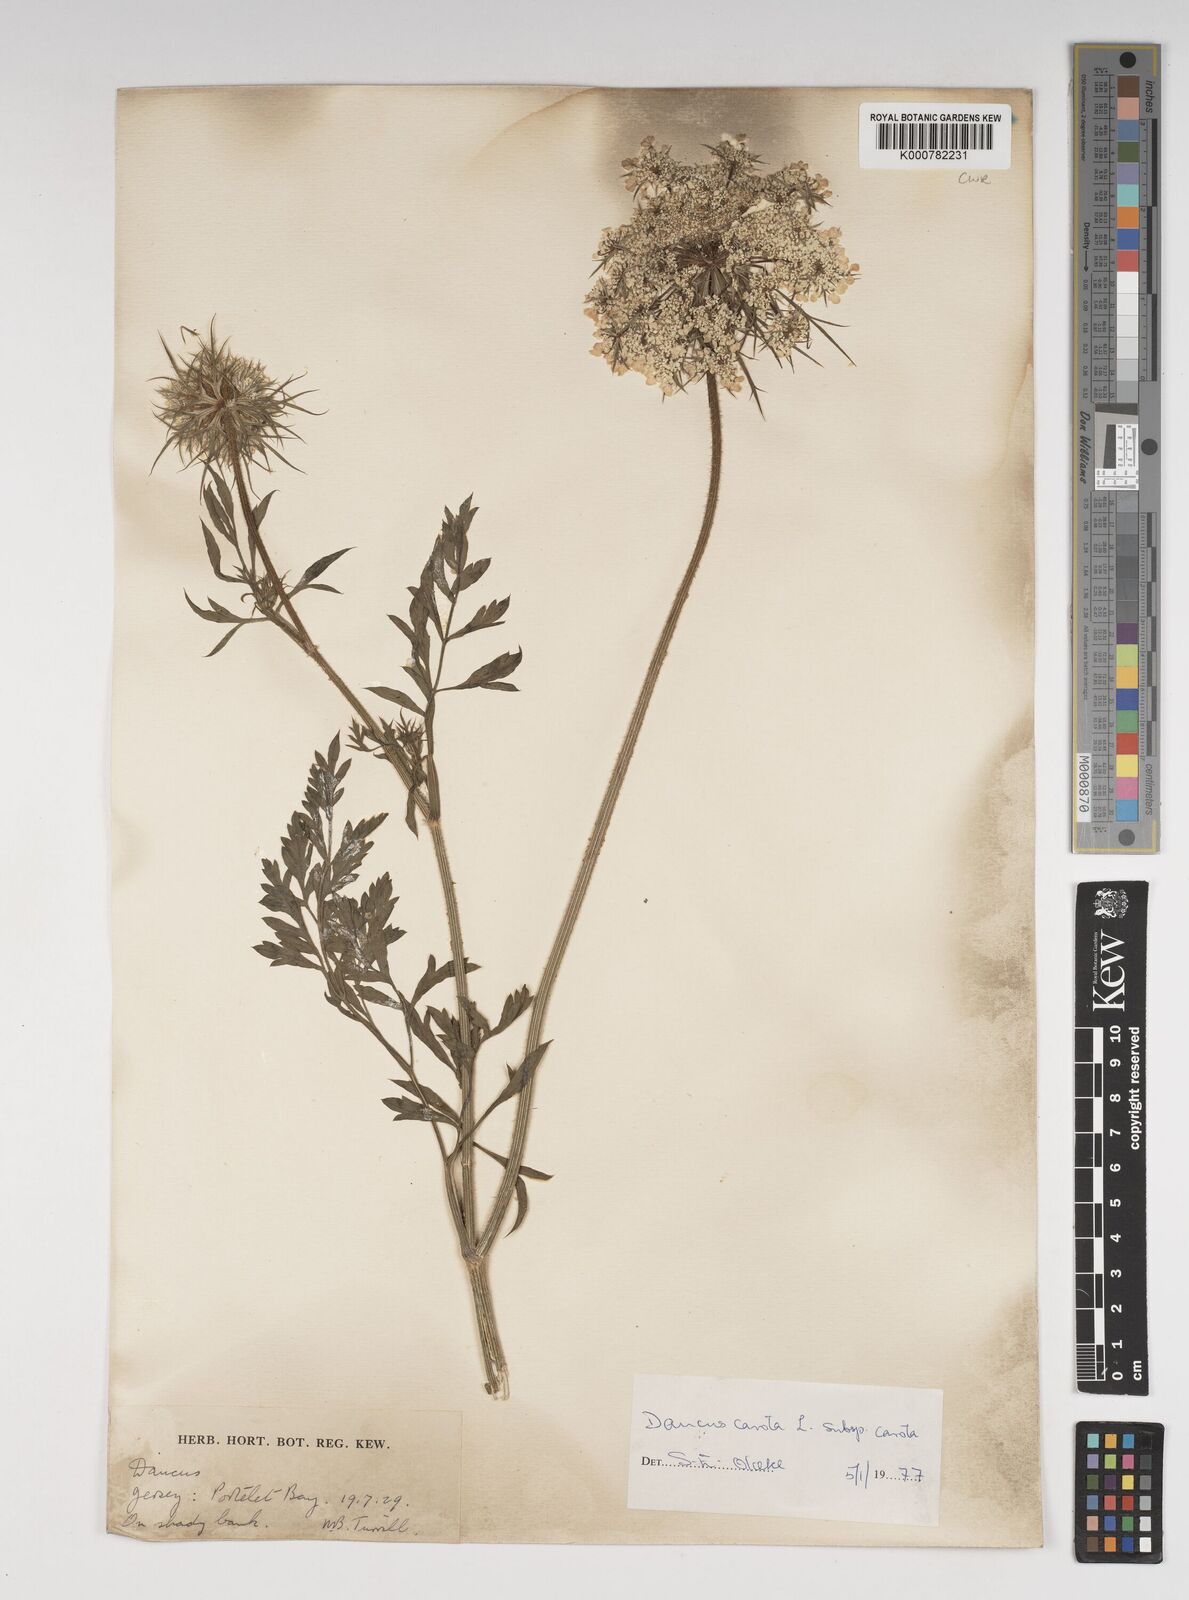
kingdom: Plantae
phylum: Tracheophyta
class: Magnoliopsida
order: Apiales
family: Apiaceae
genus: Daucus
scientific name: Daucus carota
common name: Wild carrot
